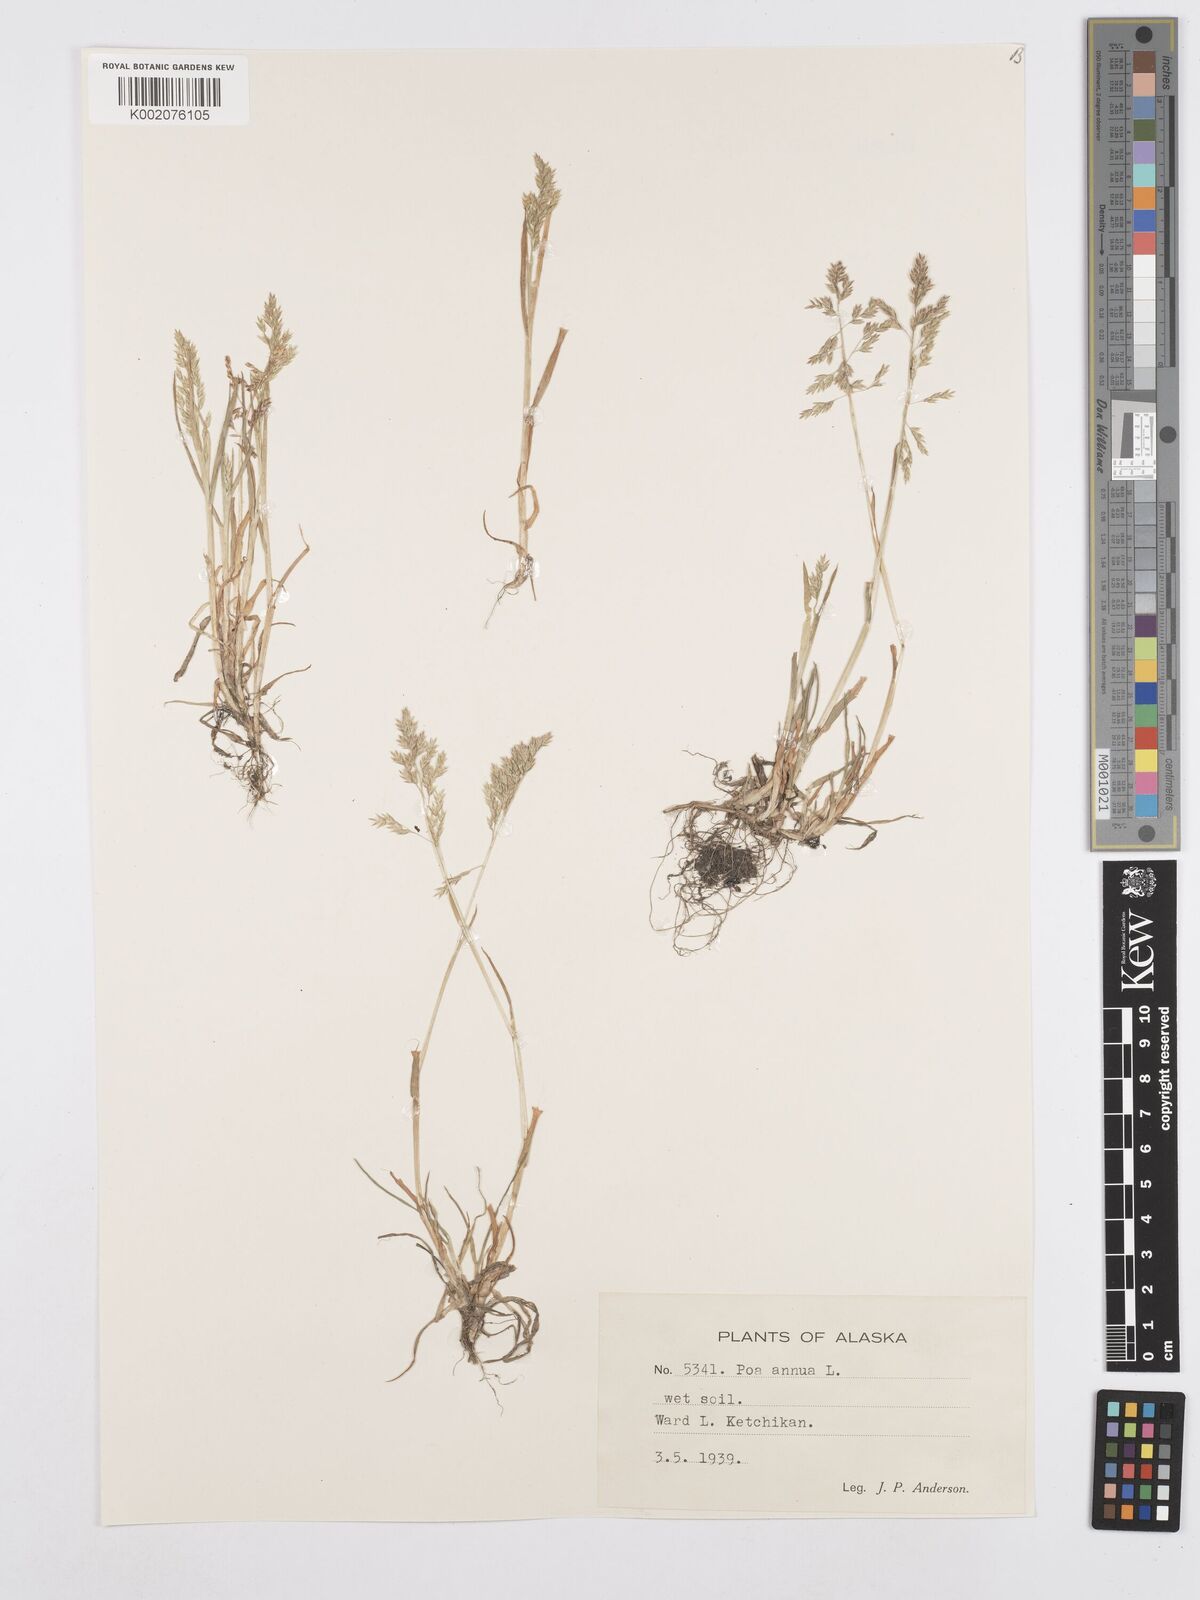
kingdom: Plantae
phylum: Tracheophyta
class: Liliopsida
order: Poales
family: Poaceae
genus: Poa
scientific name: Poa annua
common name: Annual bluegrass
